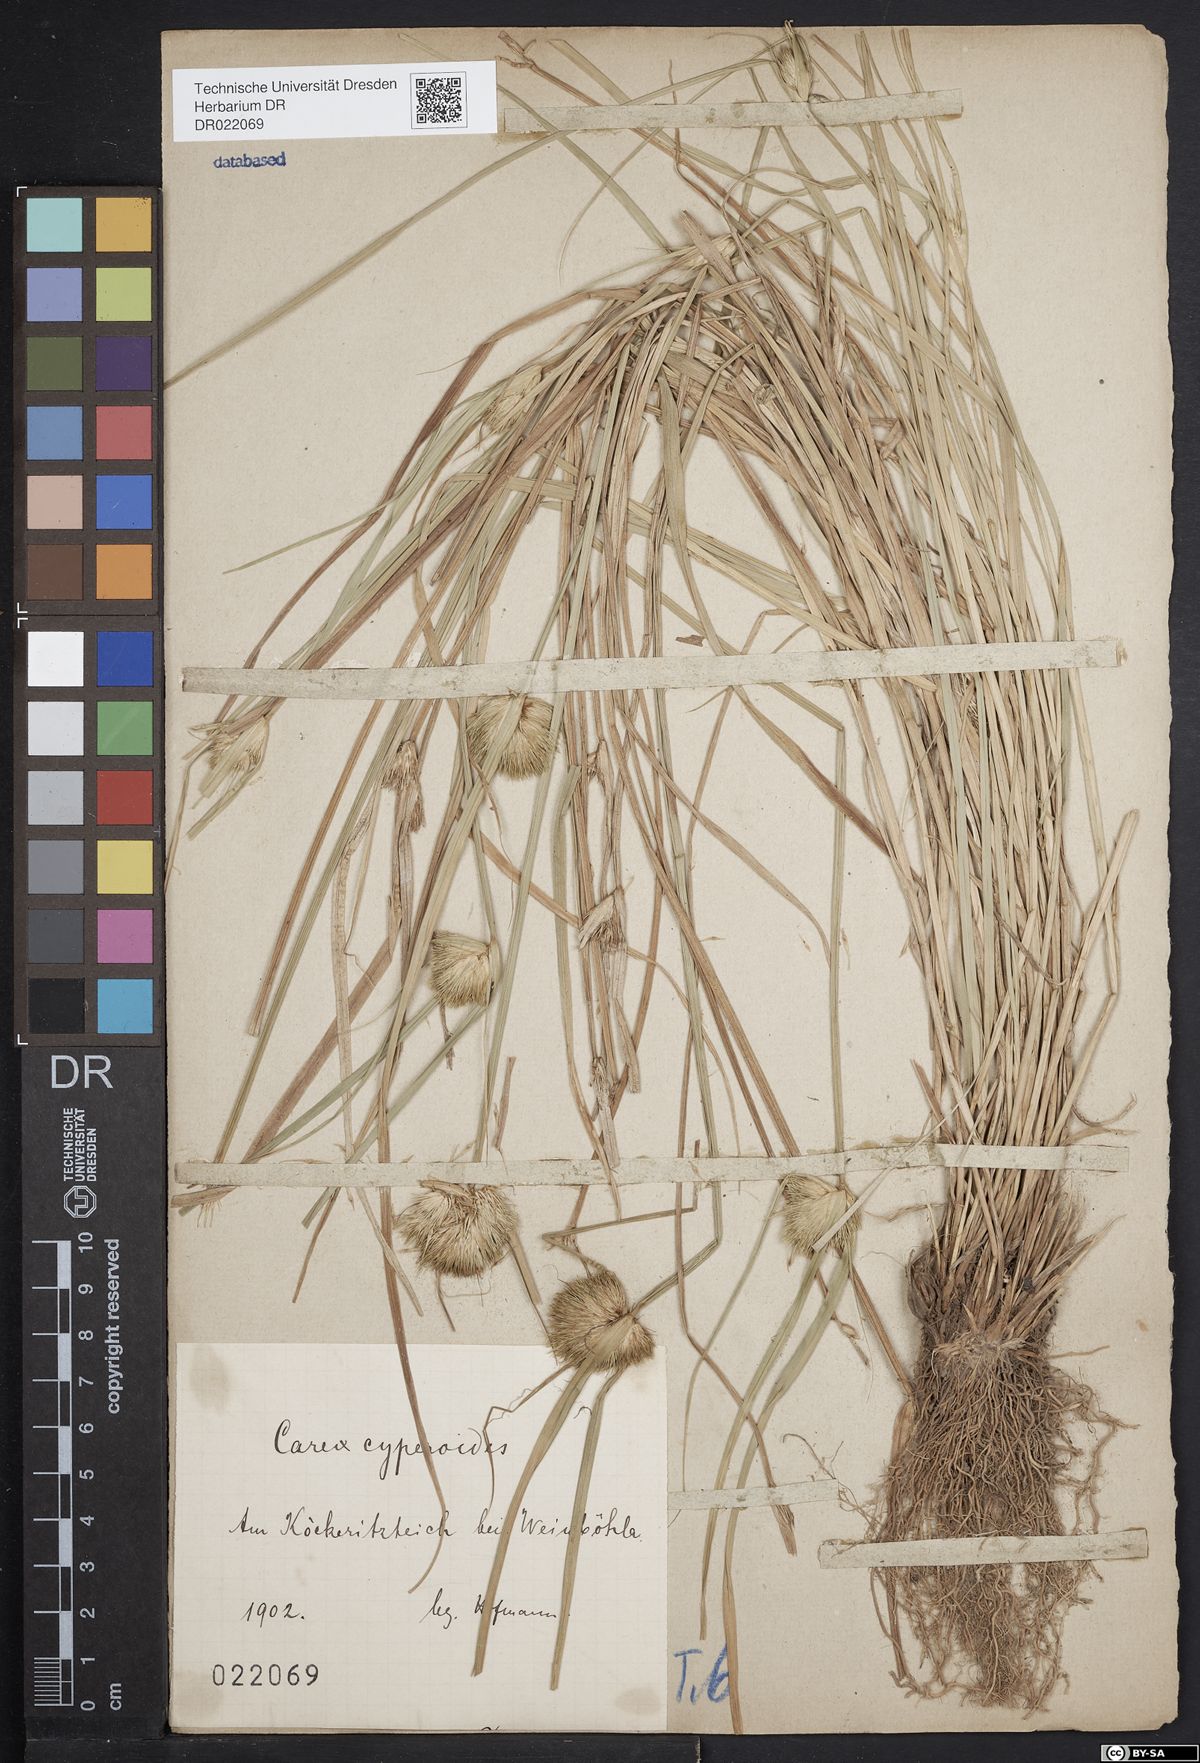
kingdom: Plantae
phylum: Tracheophyta
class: Liliopsida
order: Poales
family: Cyperaceae
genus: Carex
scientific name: Carex bohemica
